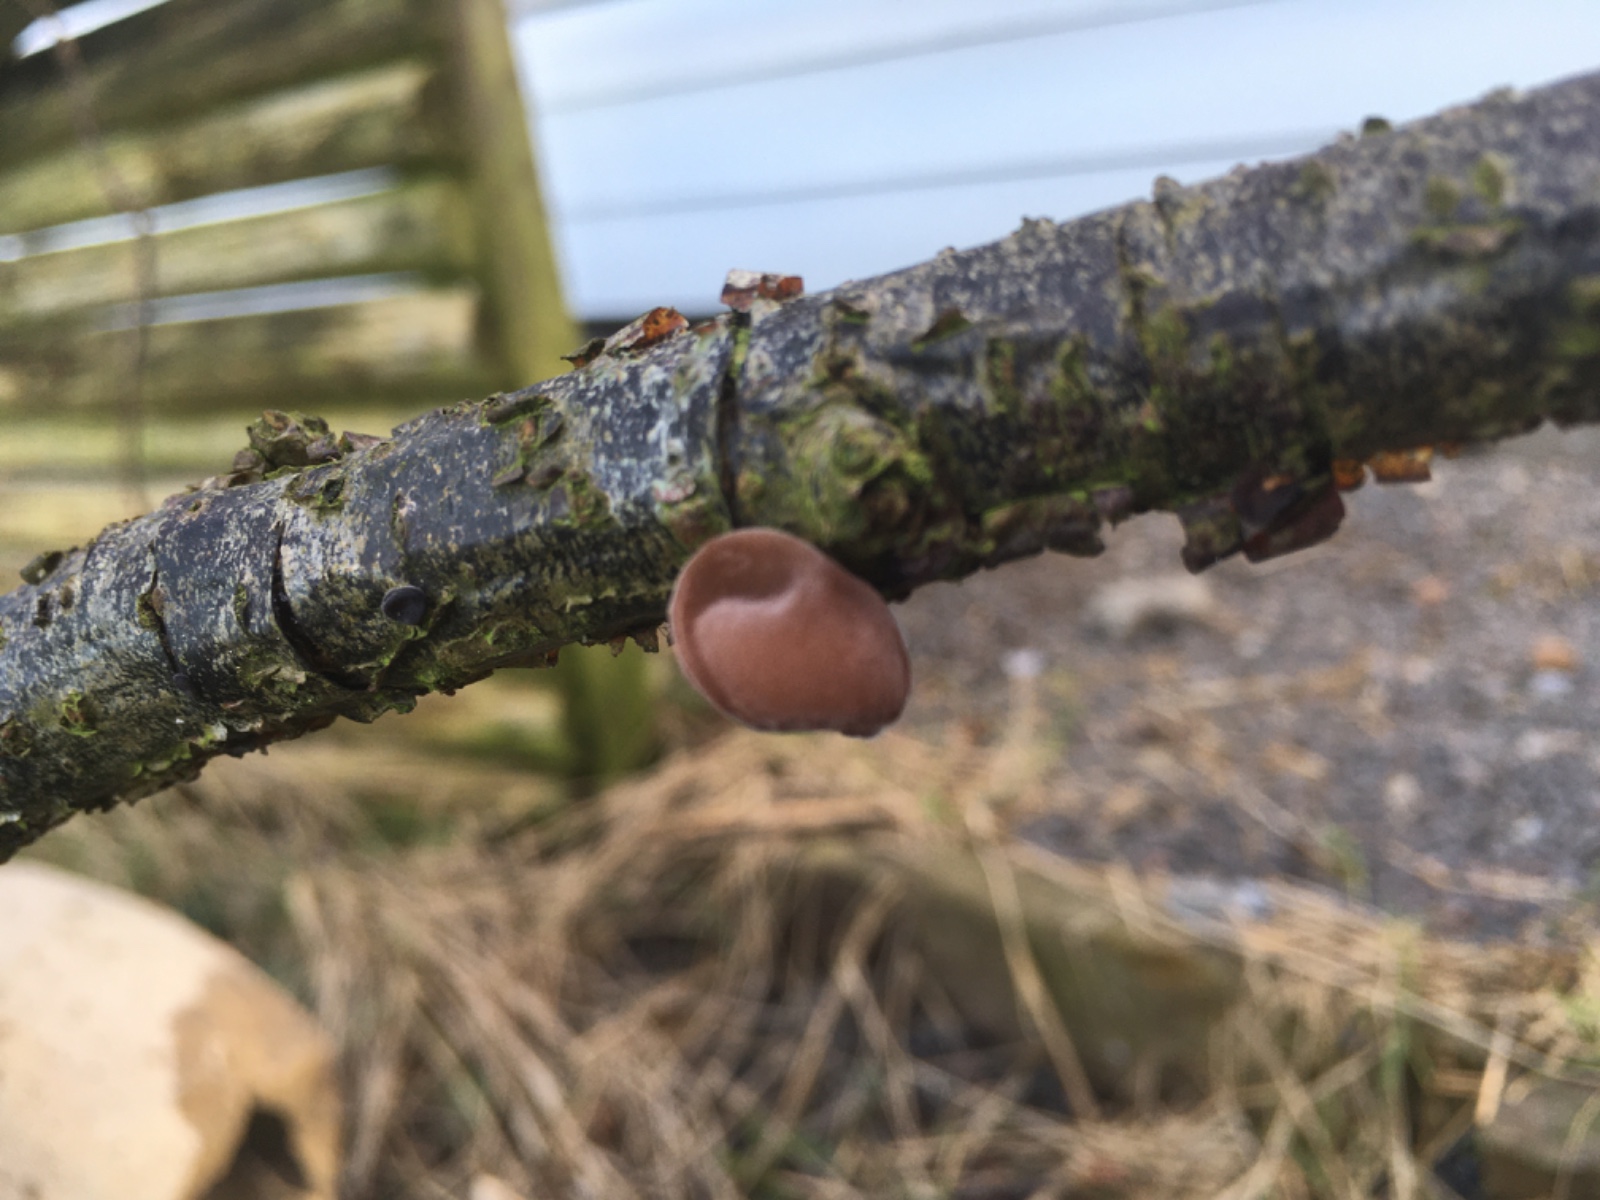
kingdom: Fungi
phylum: Basidiomycota
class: Agaricomycetes
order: Auriculariales
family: Auriculariaceae
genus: Auricularia
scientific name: Auricularia auricula-judae
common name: almindelig judasøre
